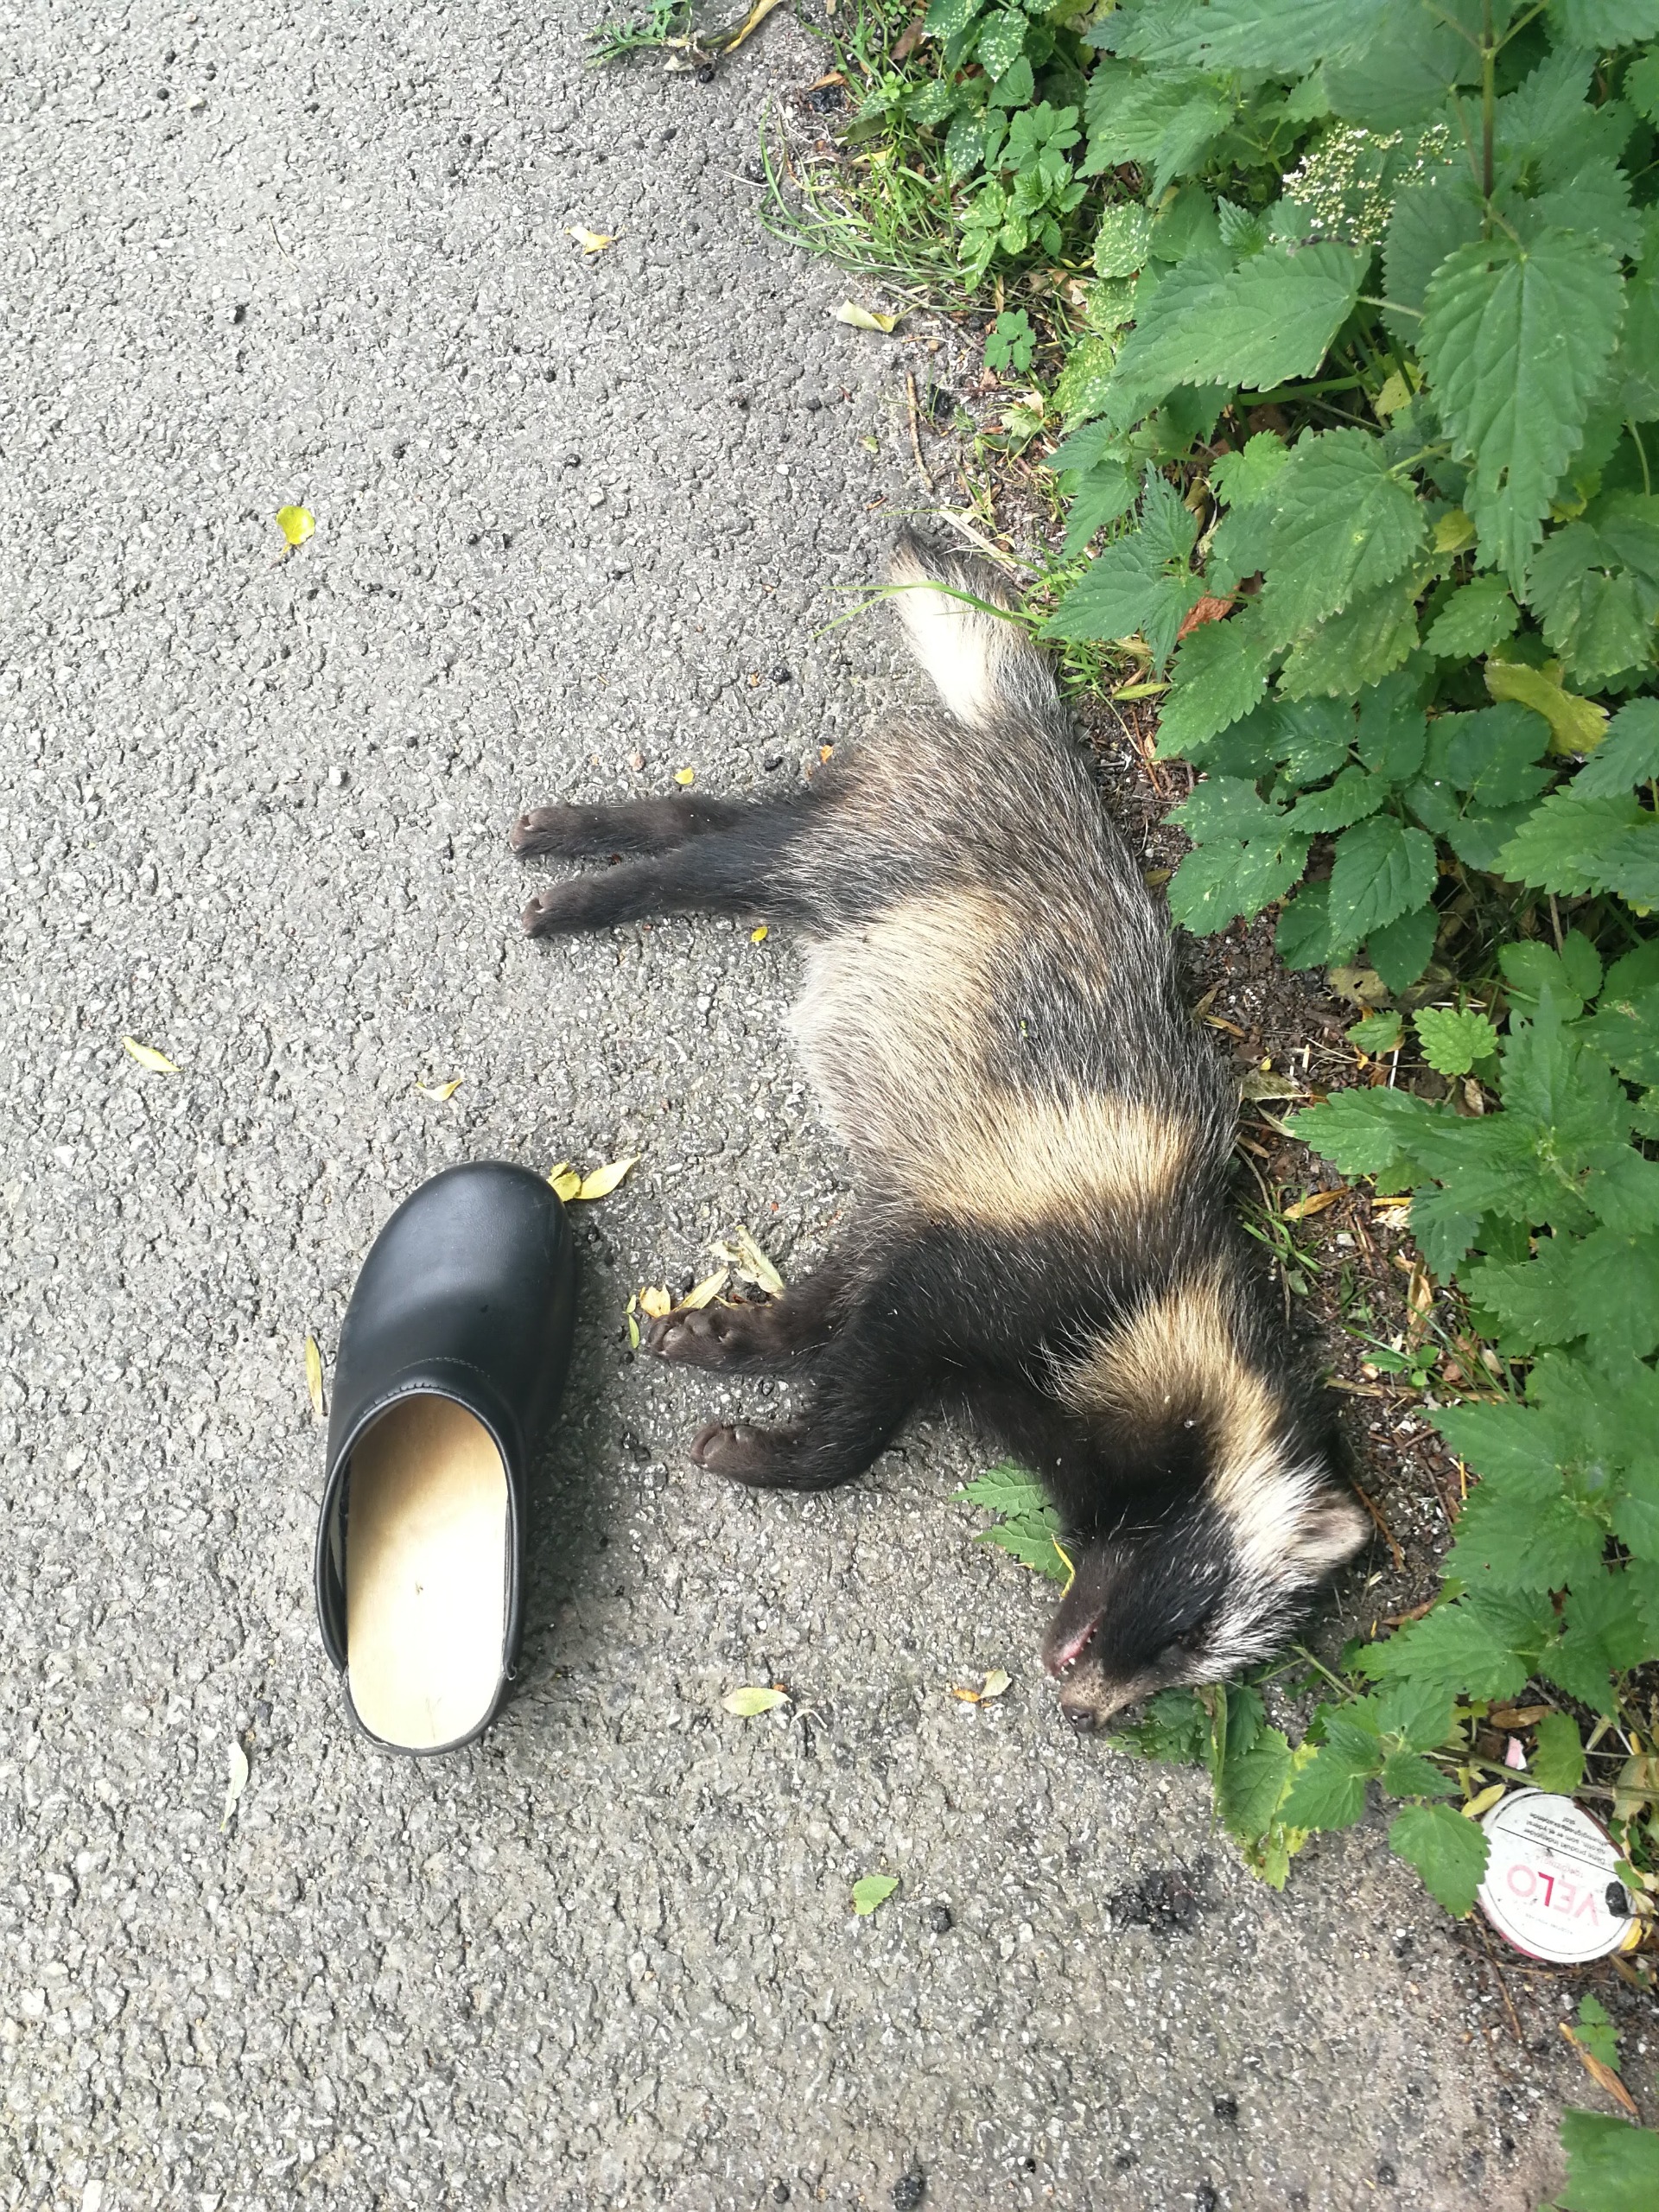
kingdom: Animalia
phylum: Chordata
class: Mammalia
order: Carnivora
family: Canidae
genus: Nyctereutes
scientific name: Nyctereutes procyonoides
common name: Mårhund
